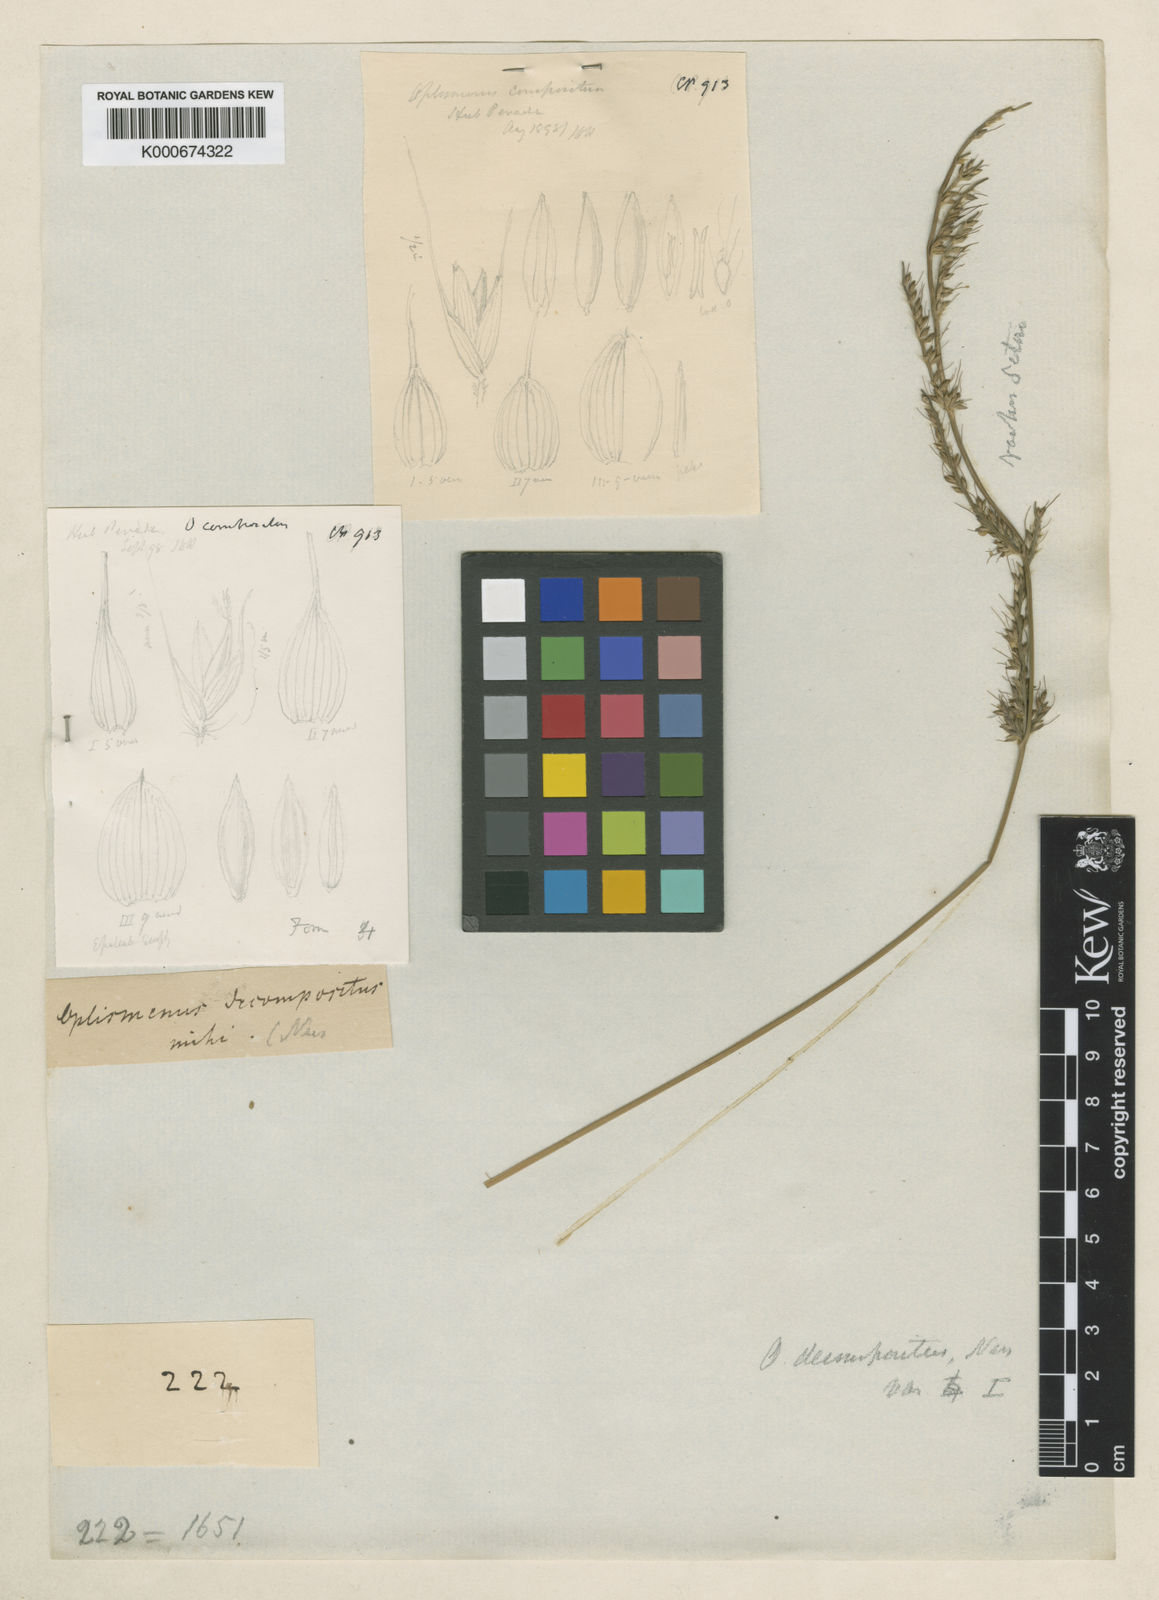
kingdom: Plantae
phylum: Tracheophyta
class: Liliopsida
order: Poales
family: Poaceae
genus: Oplismenus
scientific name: Oplismenus compositus
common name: Running mountain grass
